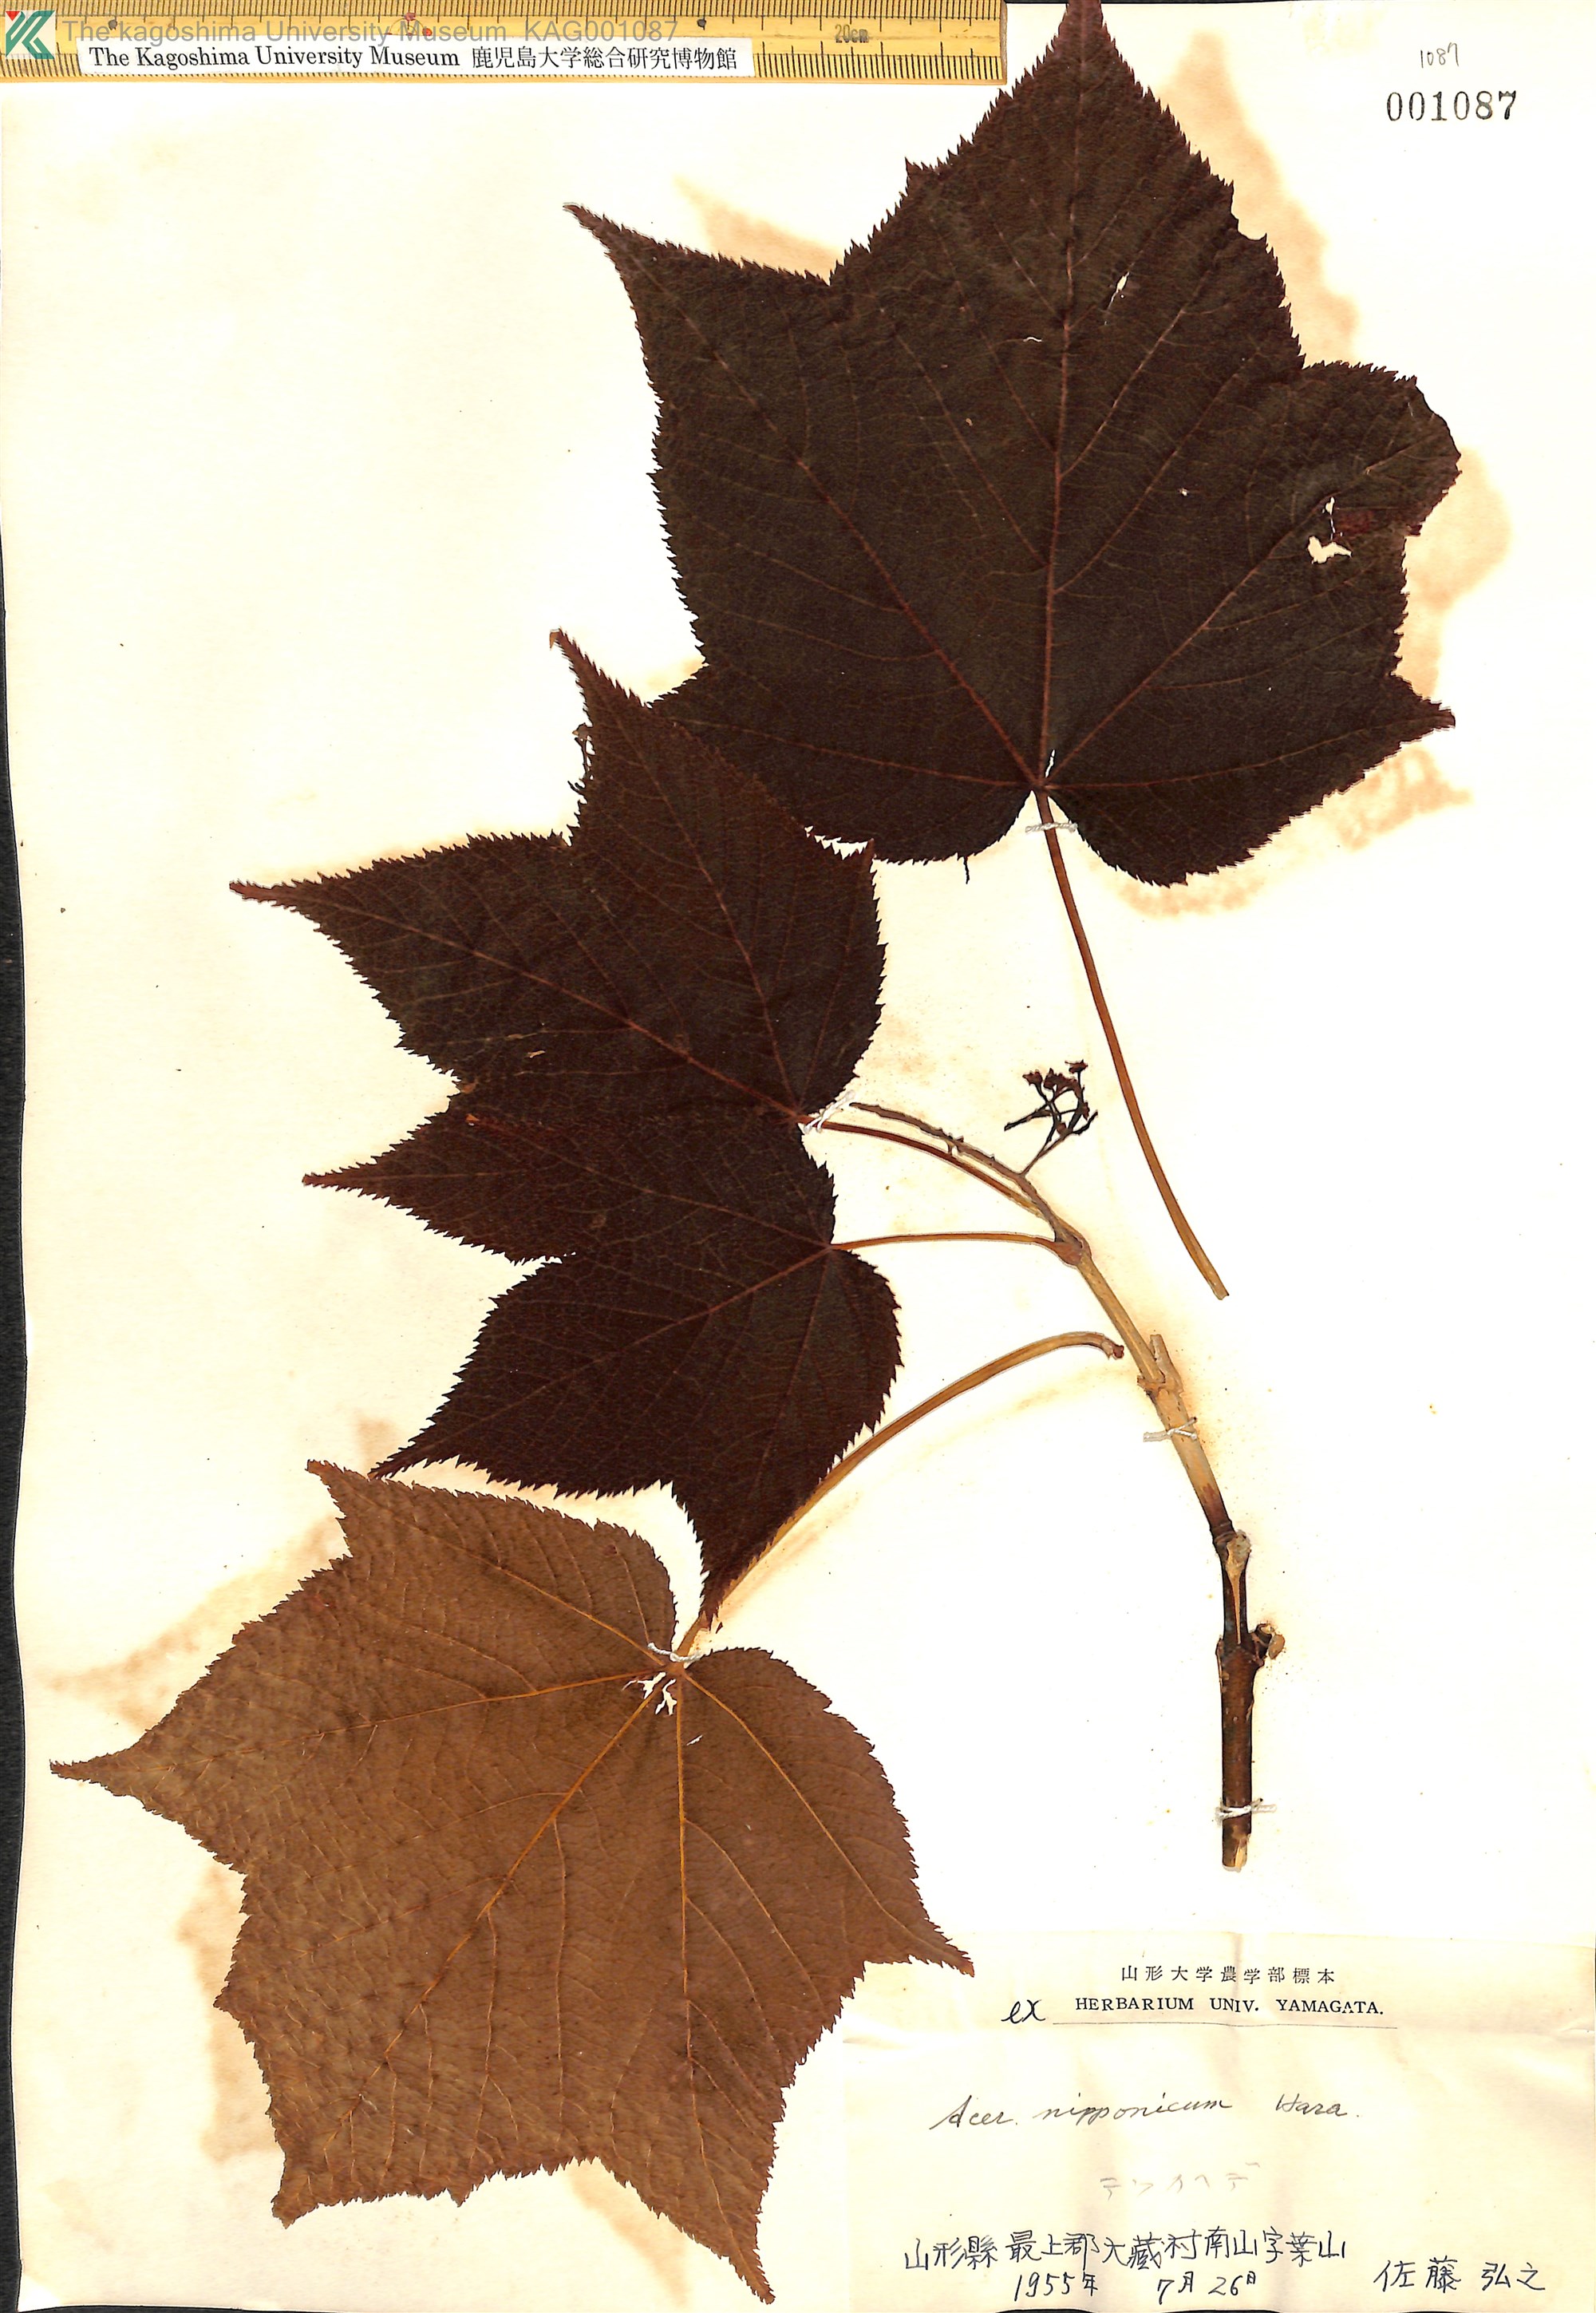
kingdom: Plantae
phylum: Tracheophyta
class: Magnoliopsida
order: Sapindales
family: Sapindaceae
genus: Acer
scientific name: Acer nipponicum
